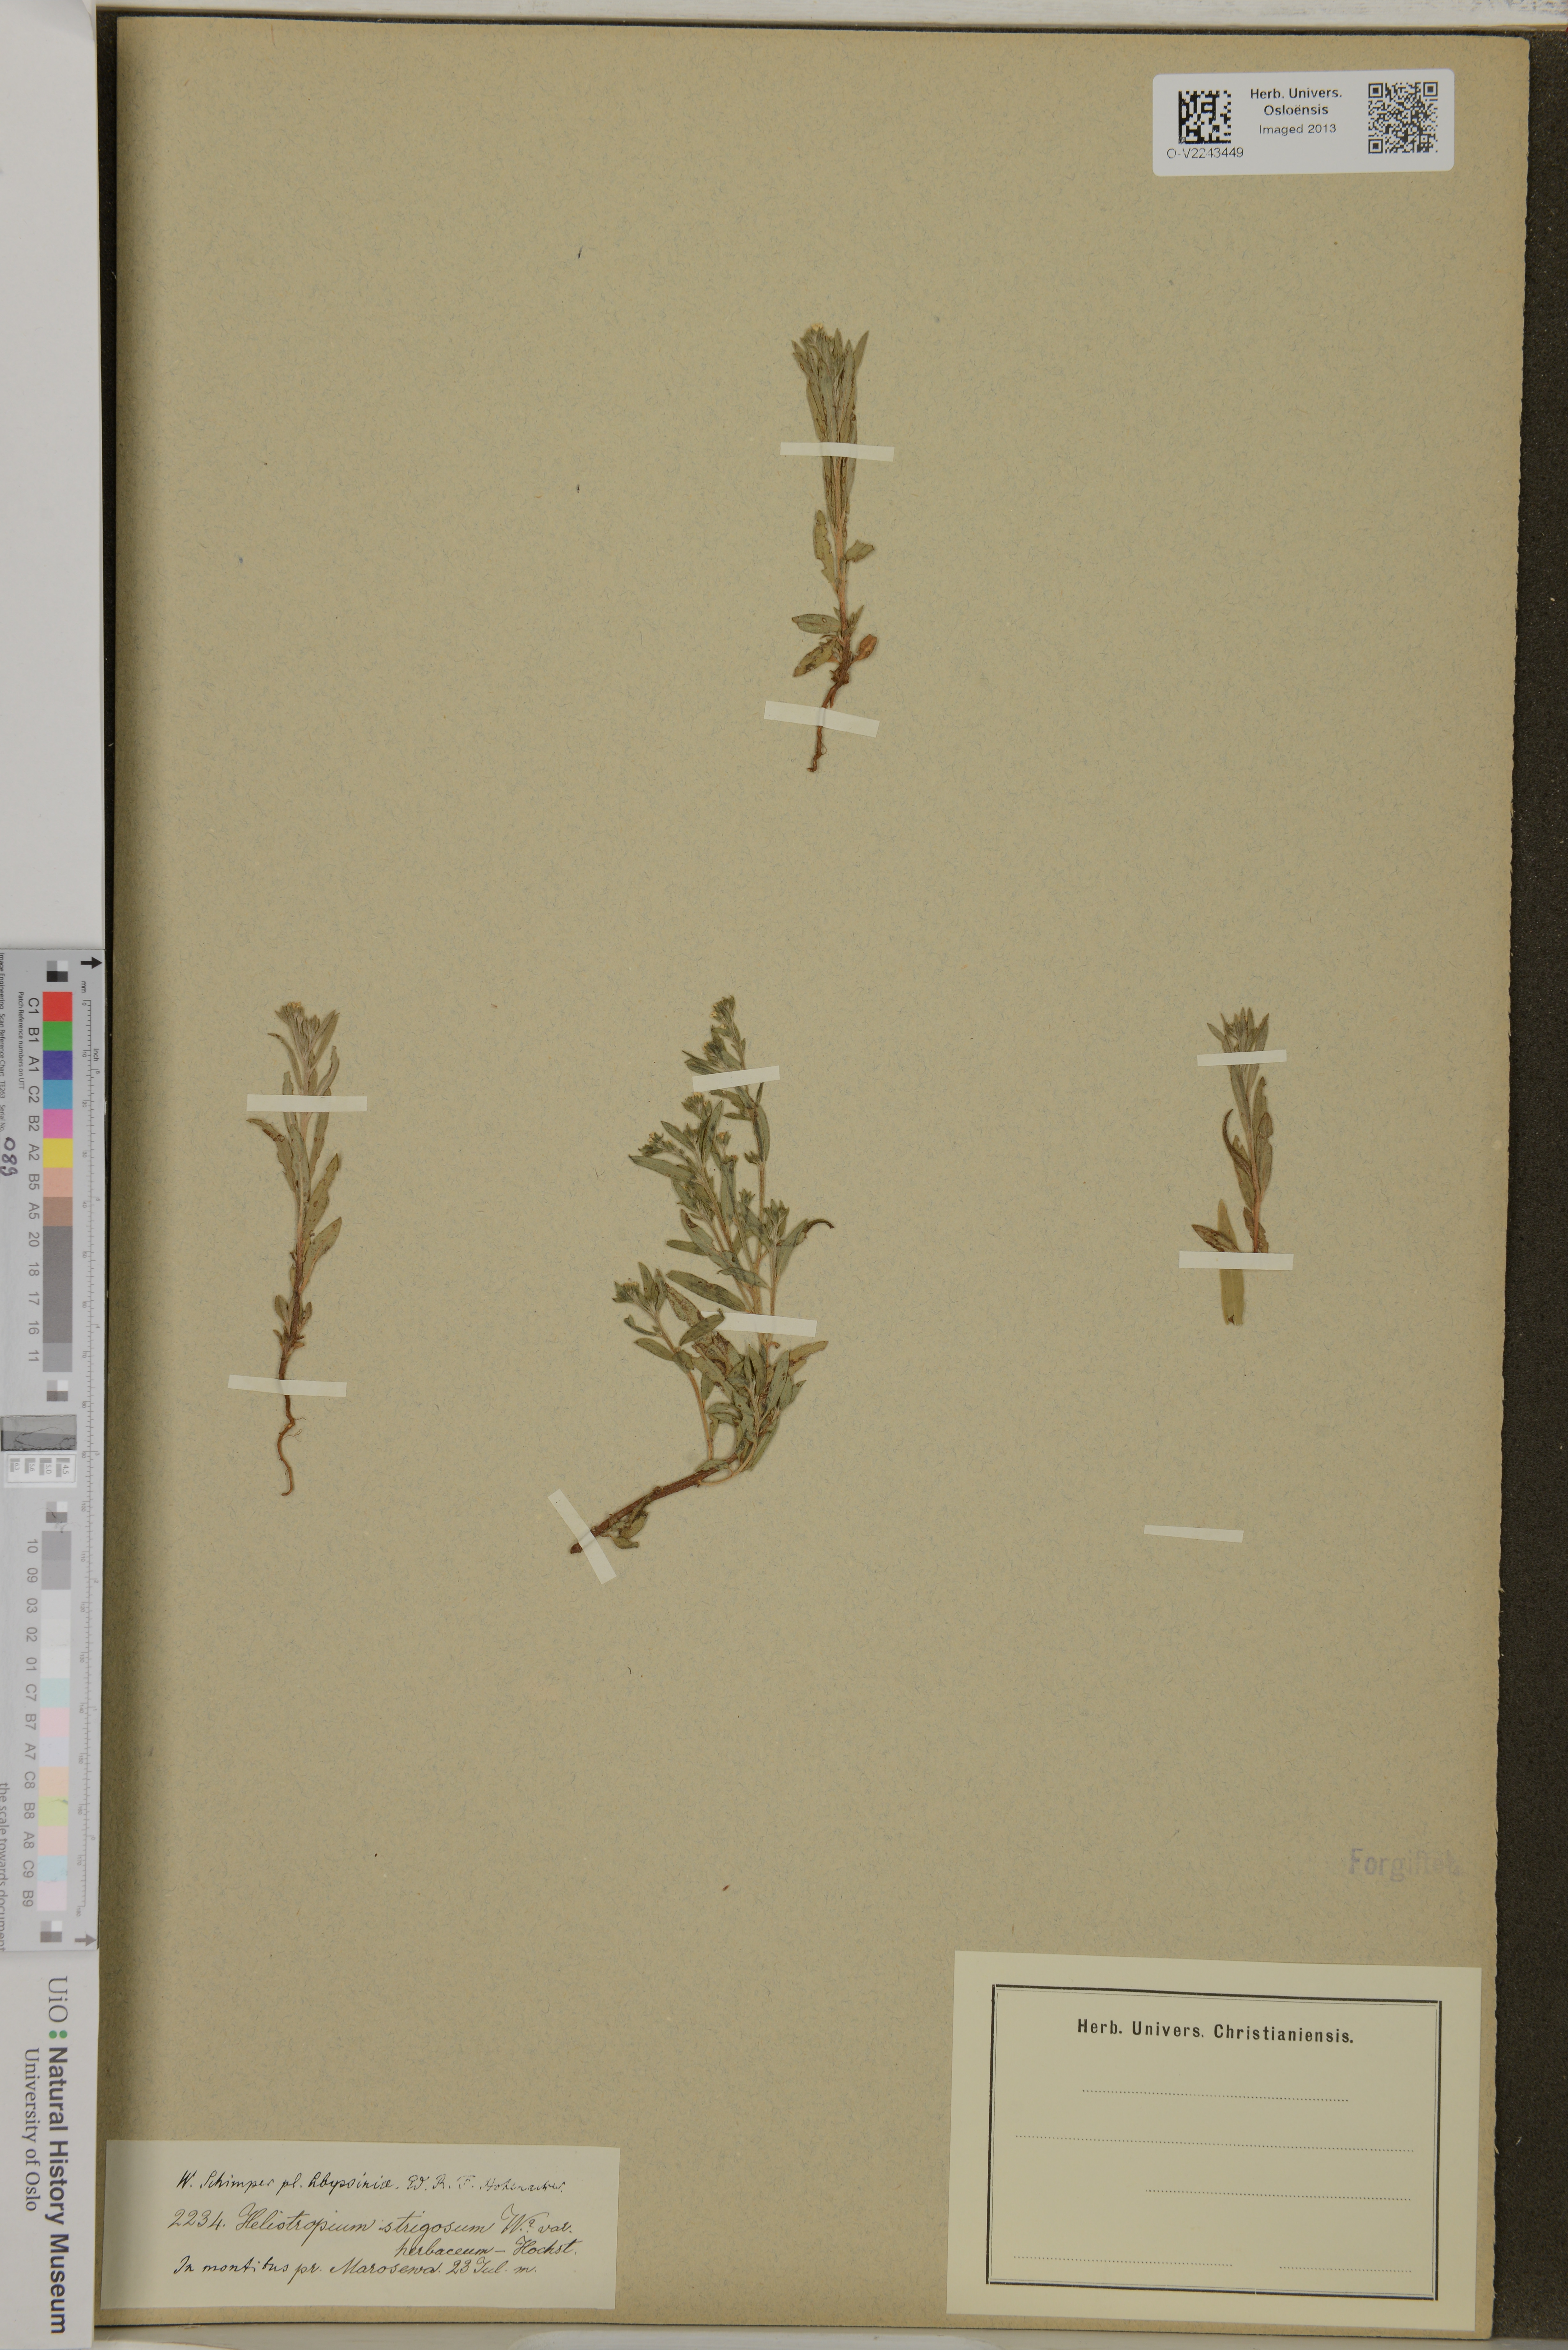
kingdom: Plantae
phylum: Tracheophyta
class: Magnoliopsida
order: Boraginales
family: Heliotropiaceae
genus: Euploca
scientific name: Euploca strigosa
